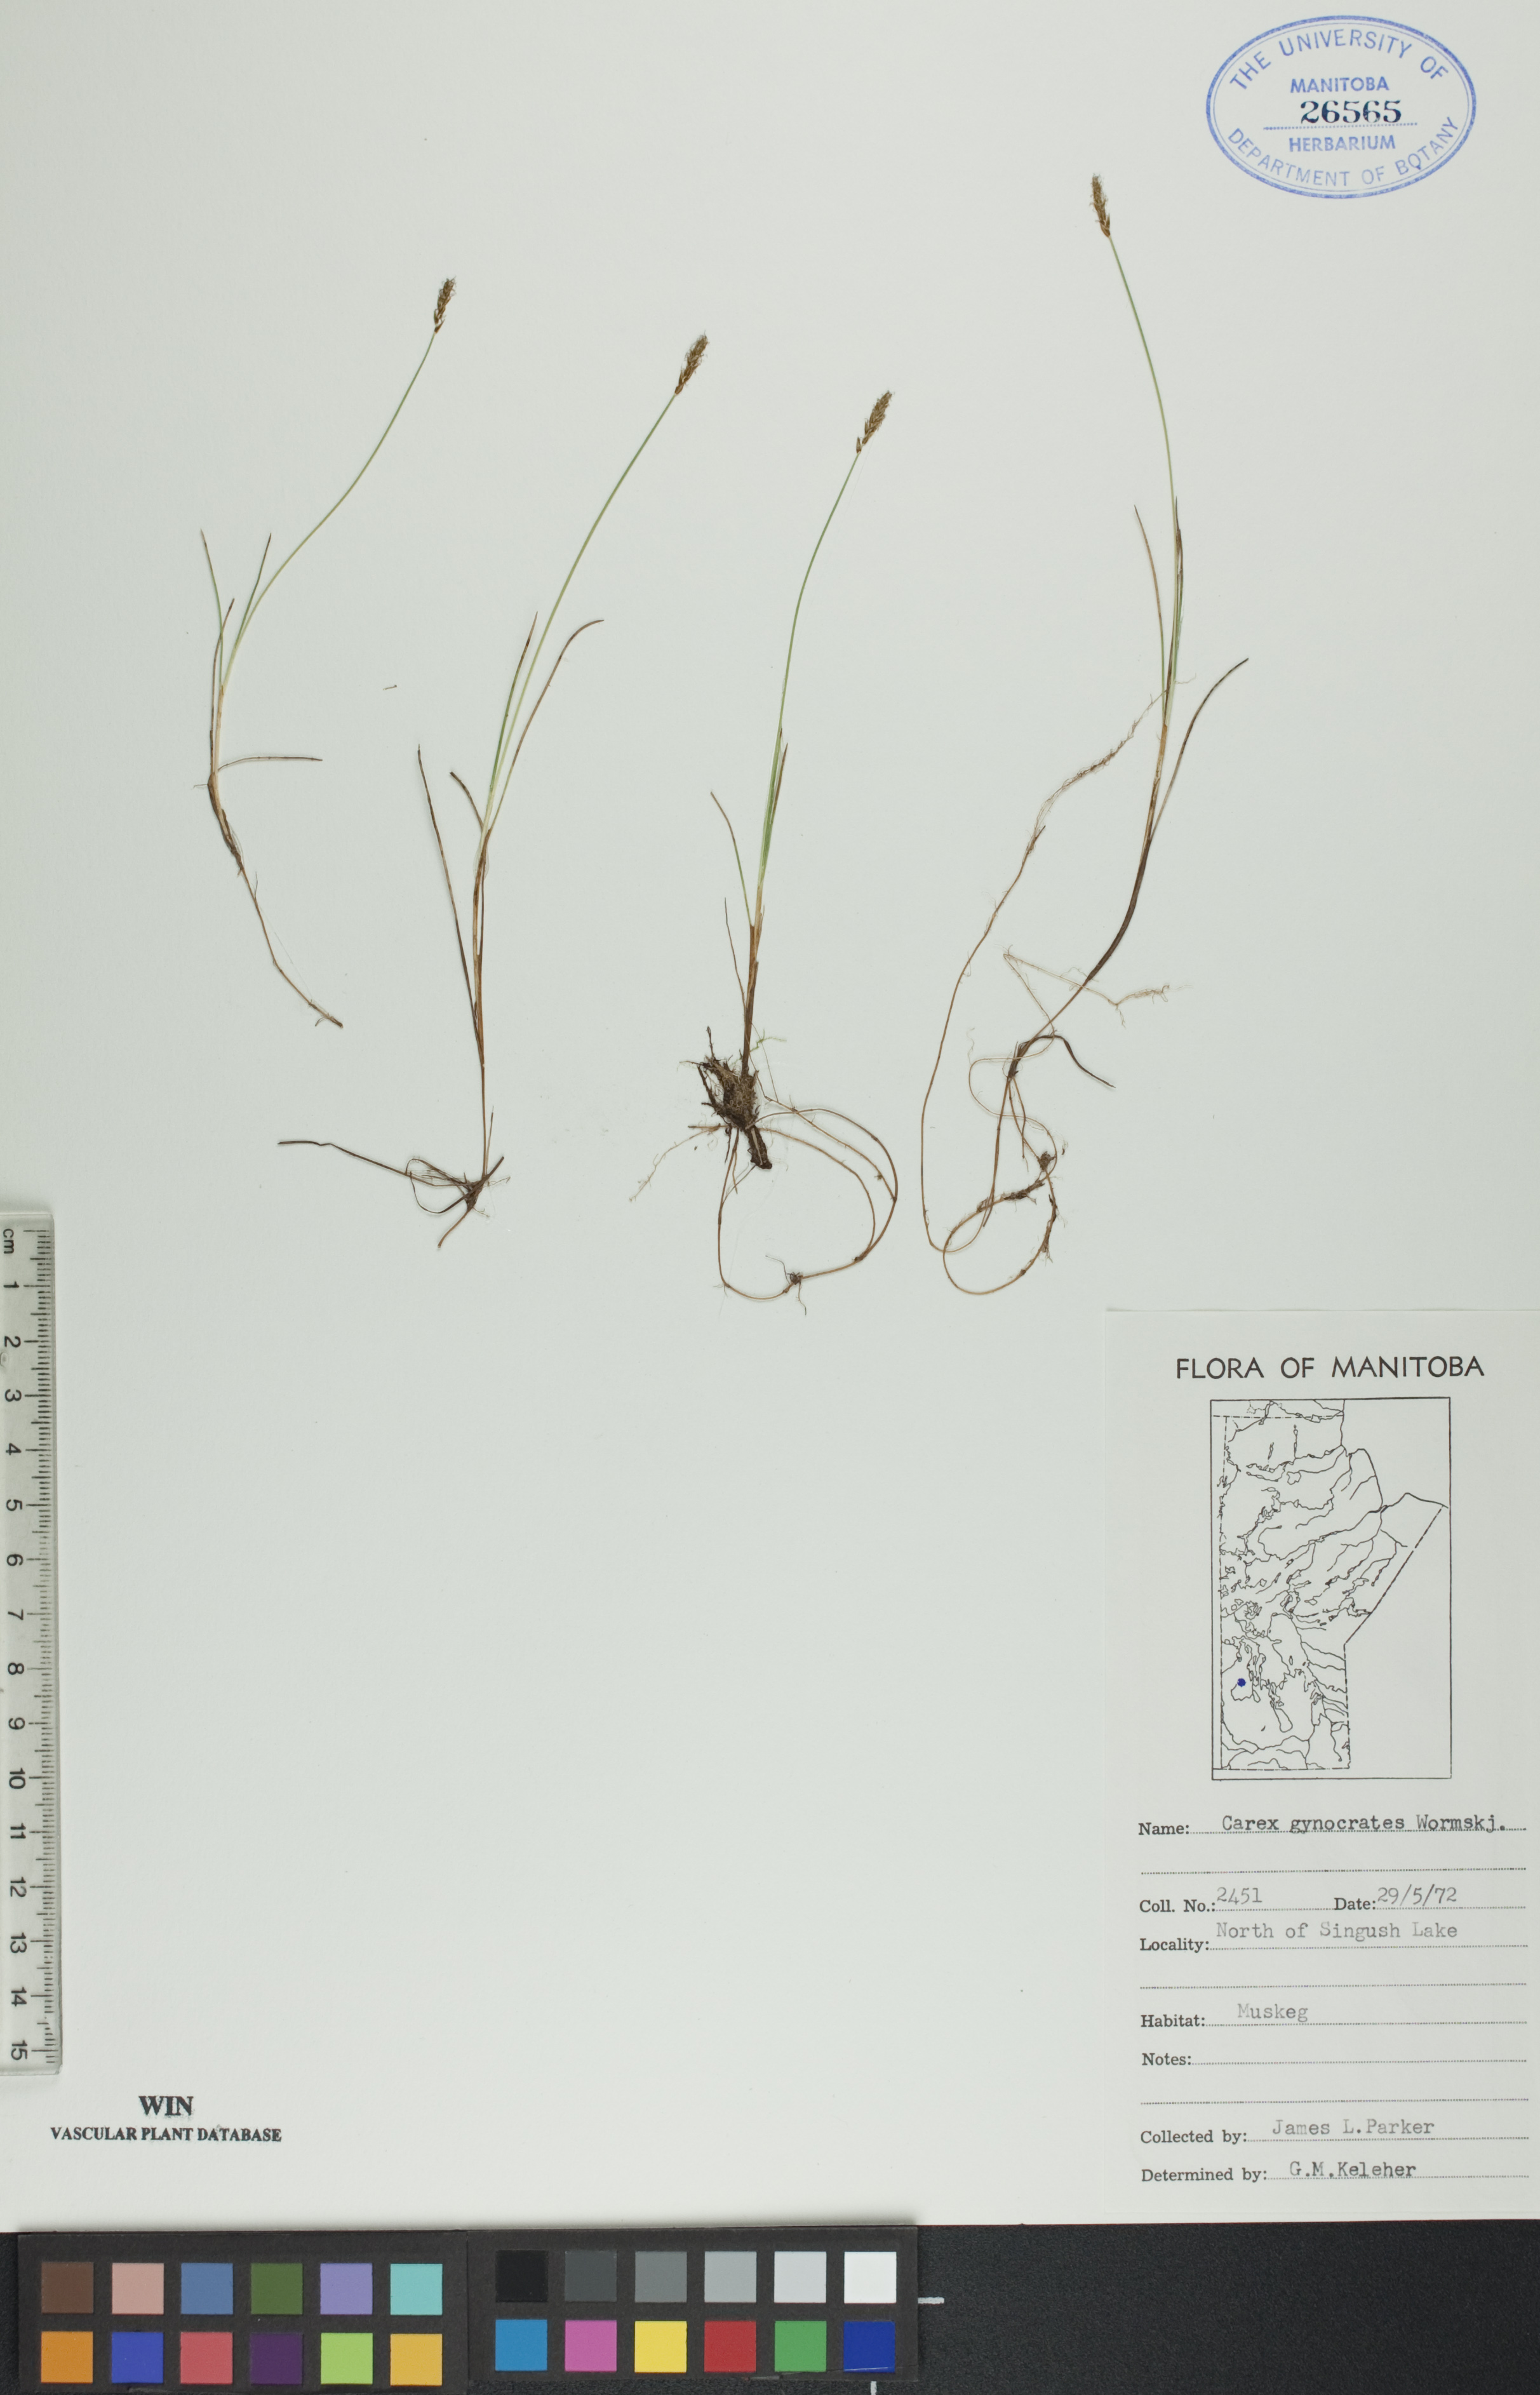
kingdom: Plantae
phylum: Tracheophyta
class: Liliopsida
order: Poales
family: Cyperaceae
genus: Carex
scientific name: Carex nardina
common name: Nard sedge
